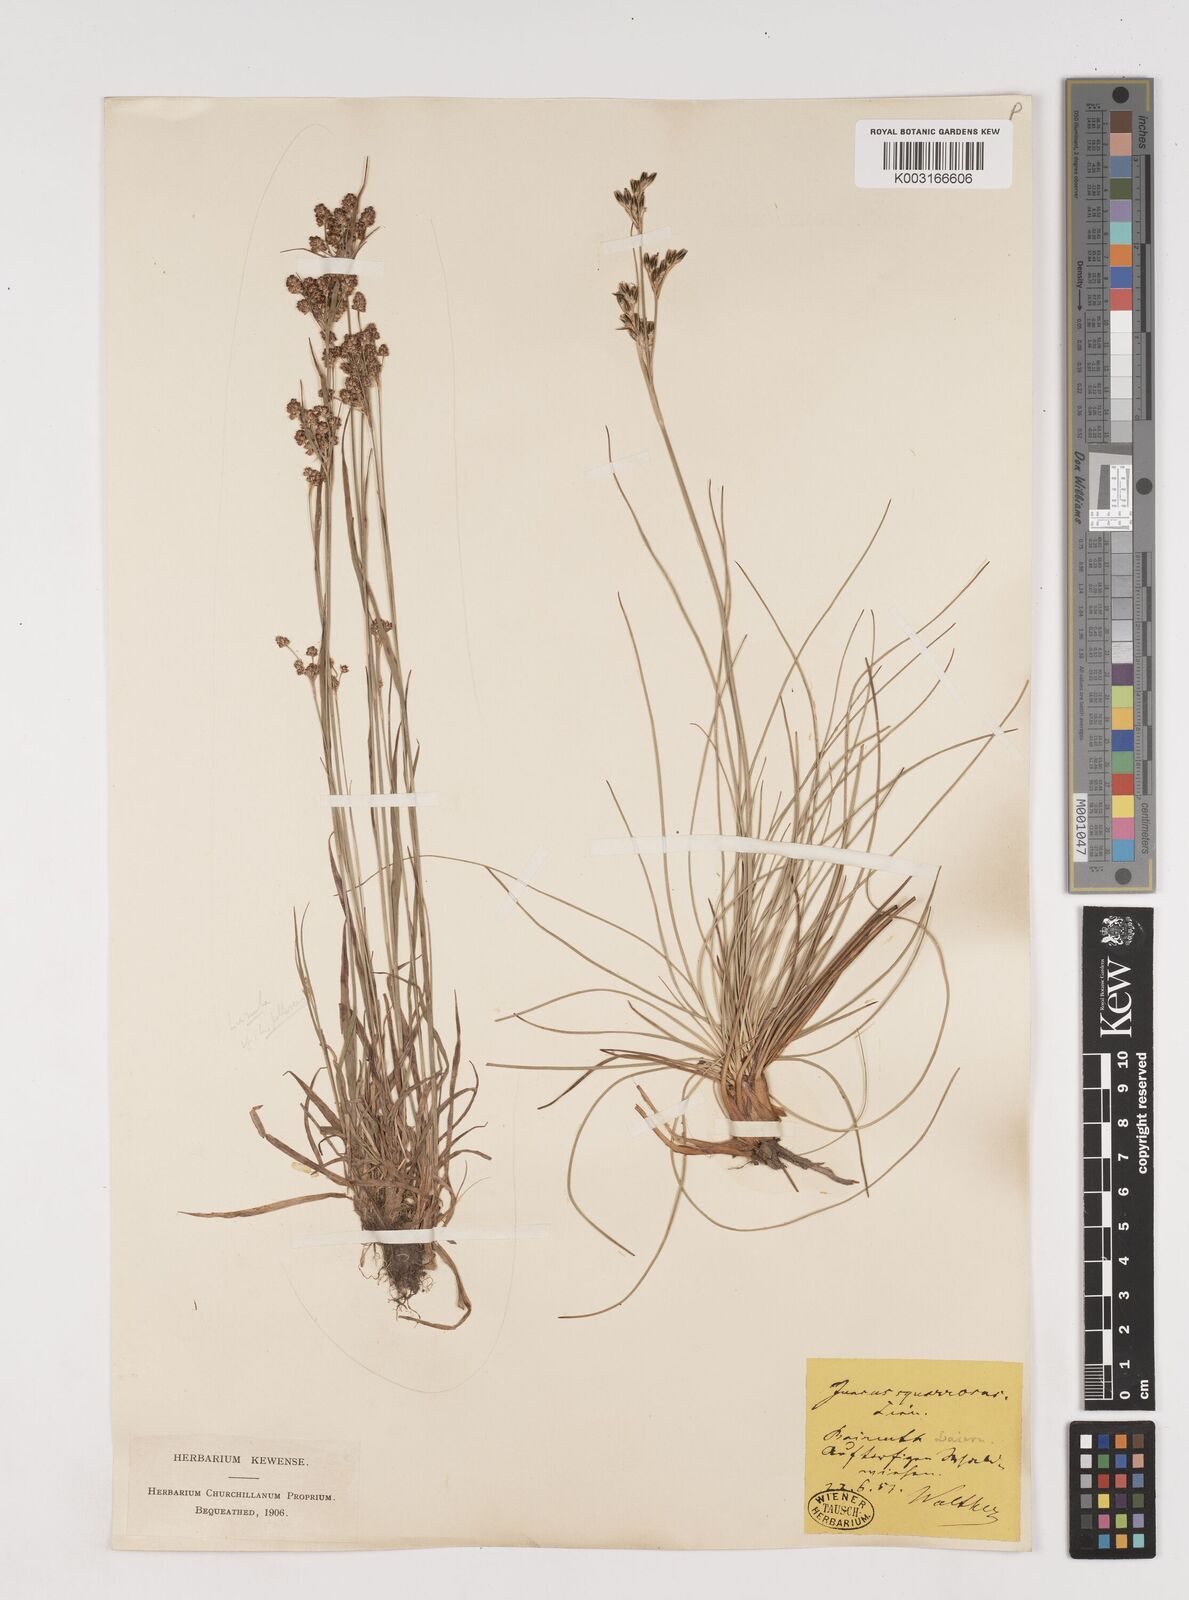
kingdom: Plantae
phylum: Tracheophyta
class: Liliopsida
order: Poales
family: Juncaceae
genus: Juncus
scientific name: Juncus squarrosus
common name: Heath rush
